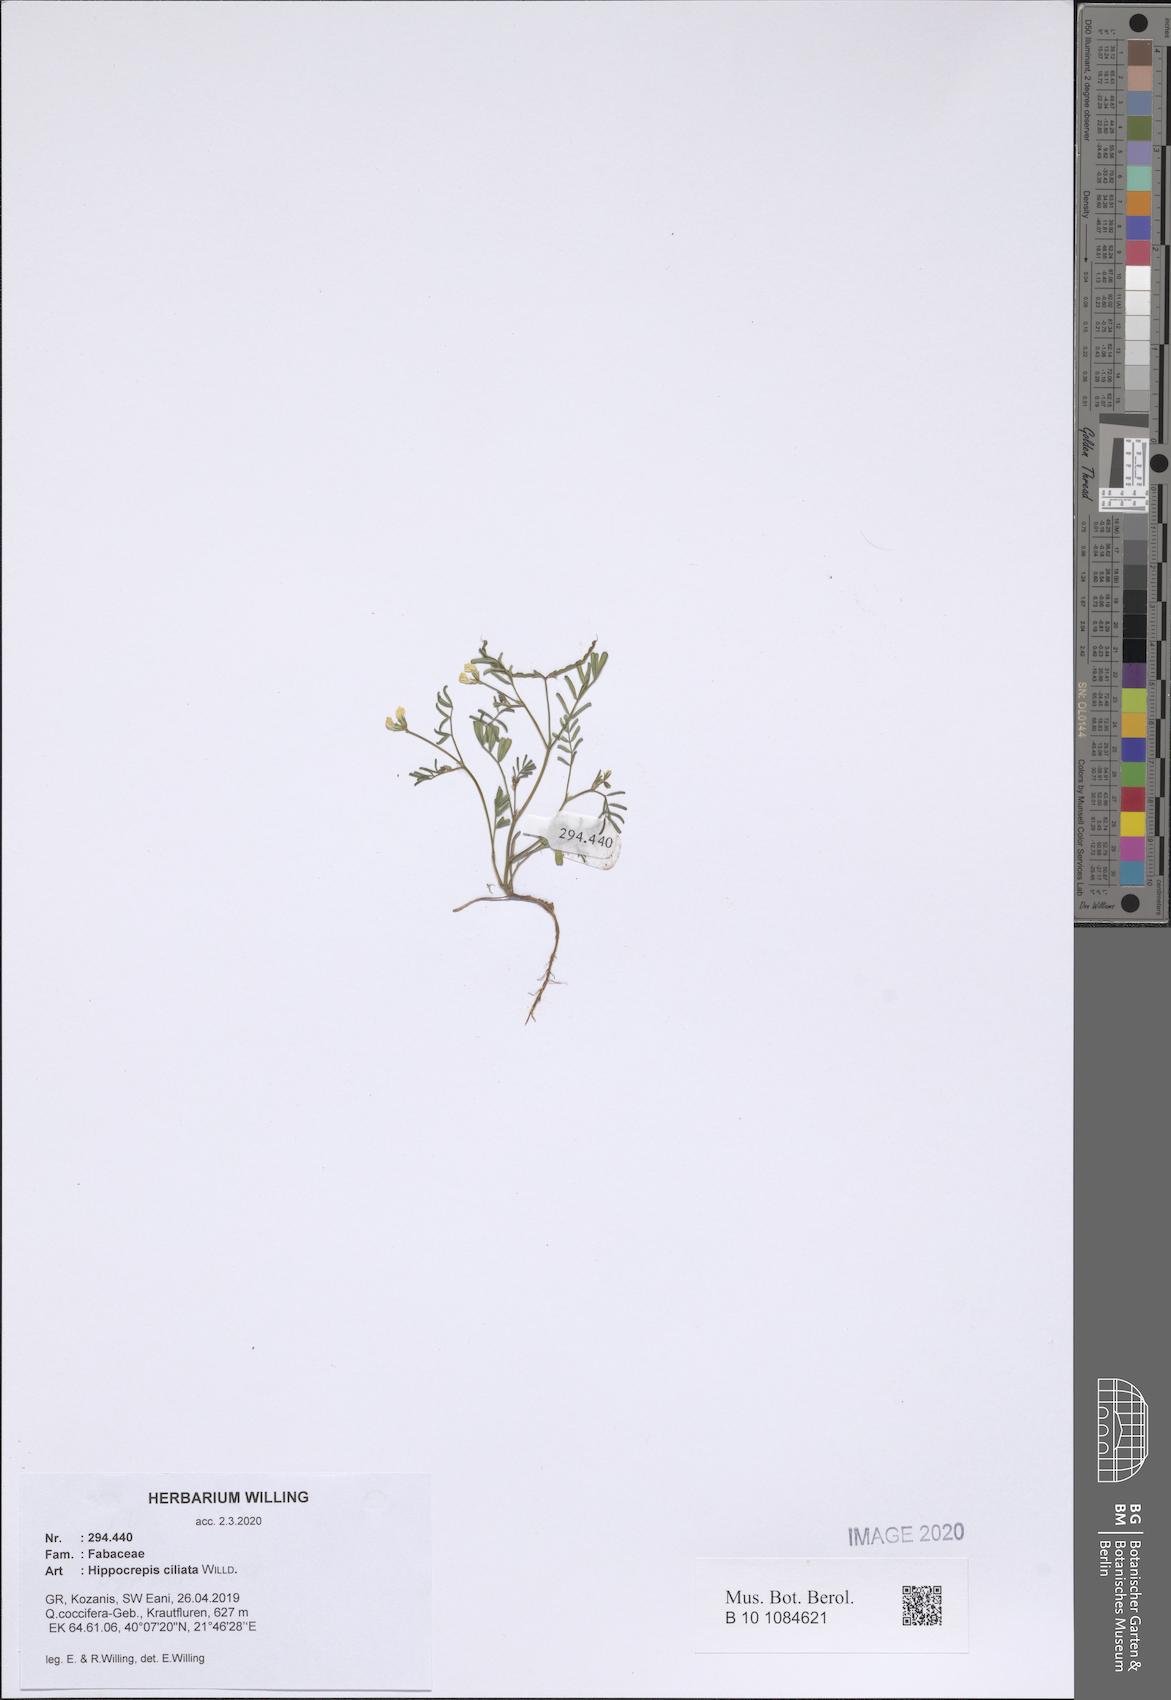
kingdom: Plantae
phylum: Tracheophyta
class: Magnoliopsida
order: Fabales
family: Fabaceae
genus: Hippocrepis
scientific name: Hippocrepis ciliata
